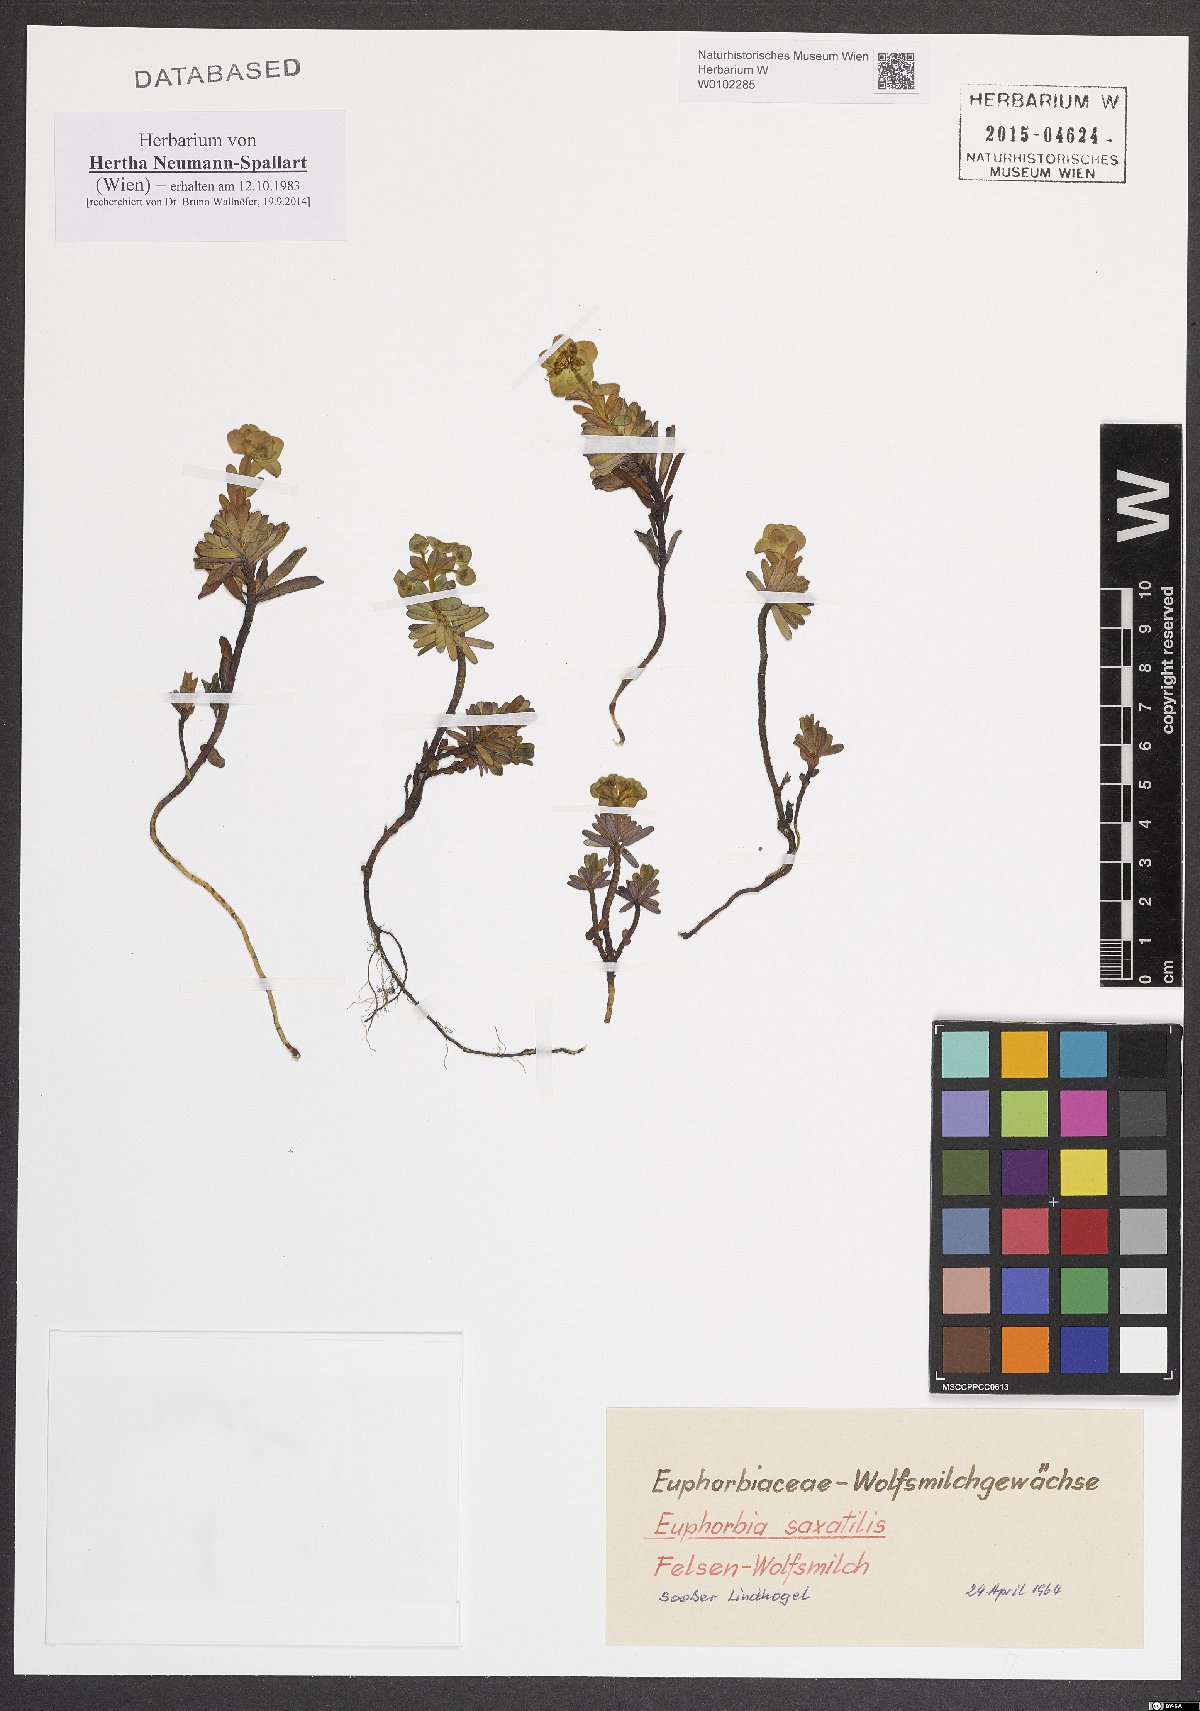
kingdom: Plantae
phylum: Tracheophyta
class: Magnoliopsida
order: Malpighiales
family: Euphorbiaceae
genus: Euphorbia
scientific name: Euphorbia saxatilis
